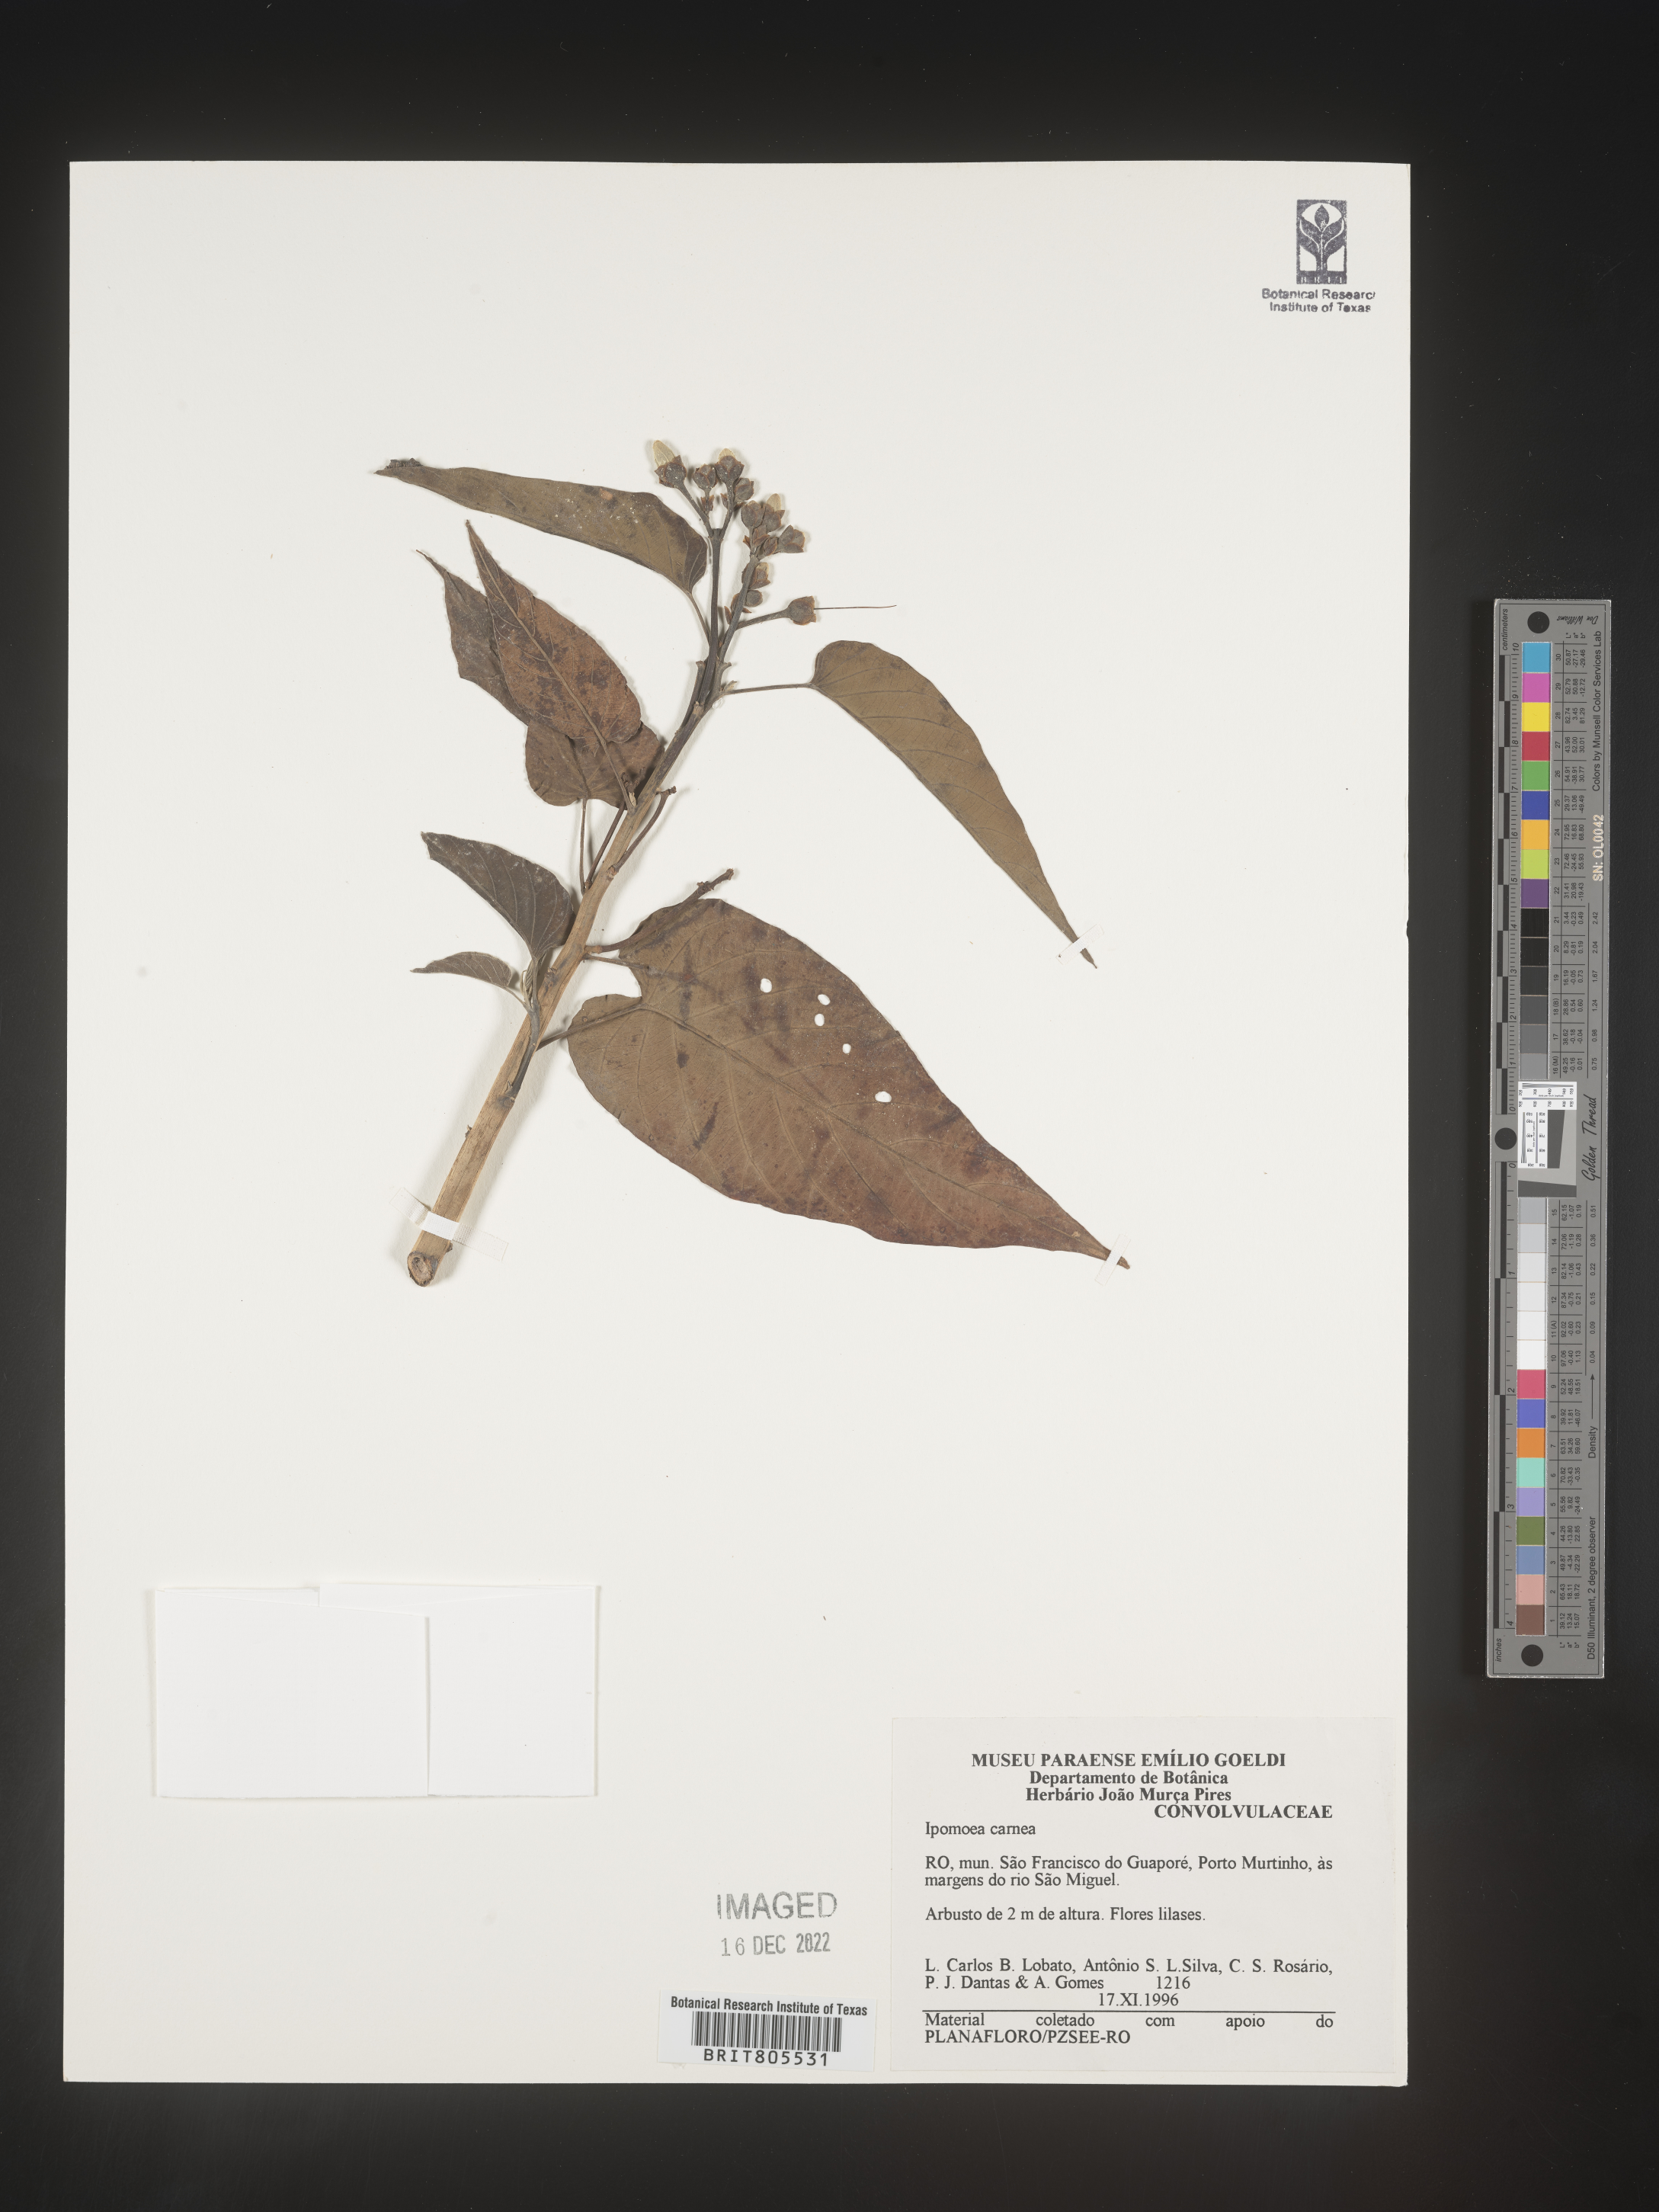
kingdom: Plantae
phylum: Tracheophyta
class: Magnoliopsida
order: Solanales
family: Convolvulaceae
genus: Ipomoea
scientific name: Ipomoea
